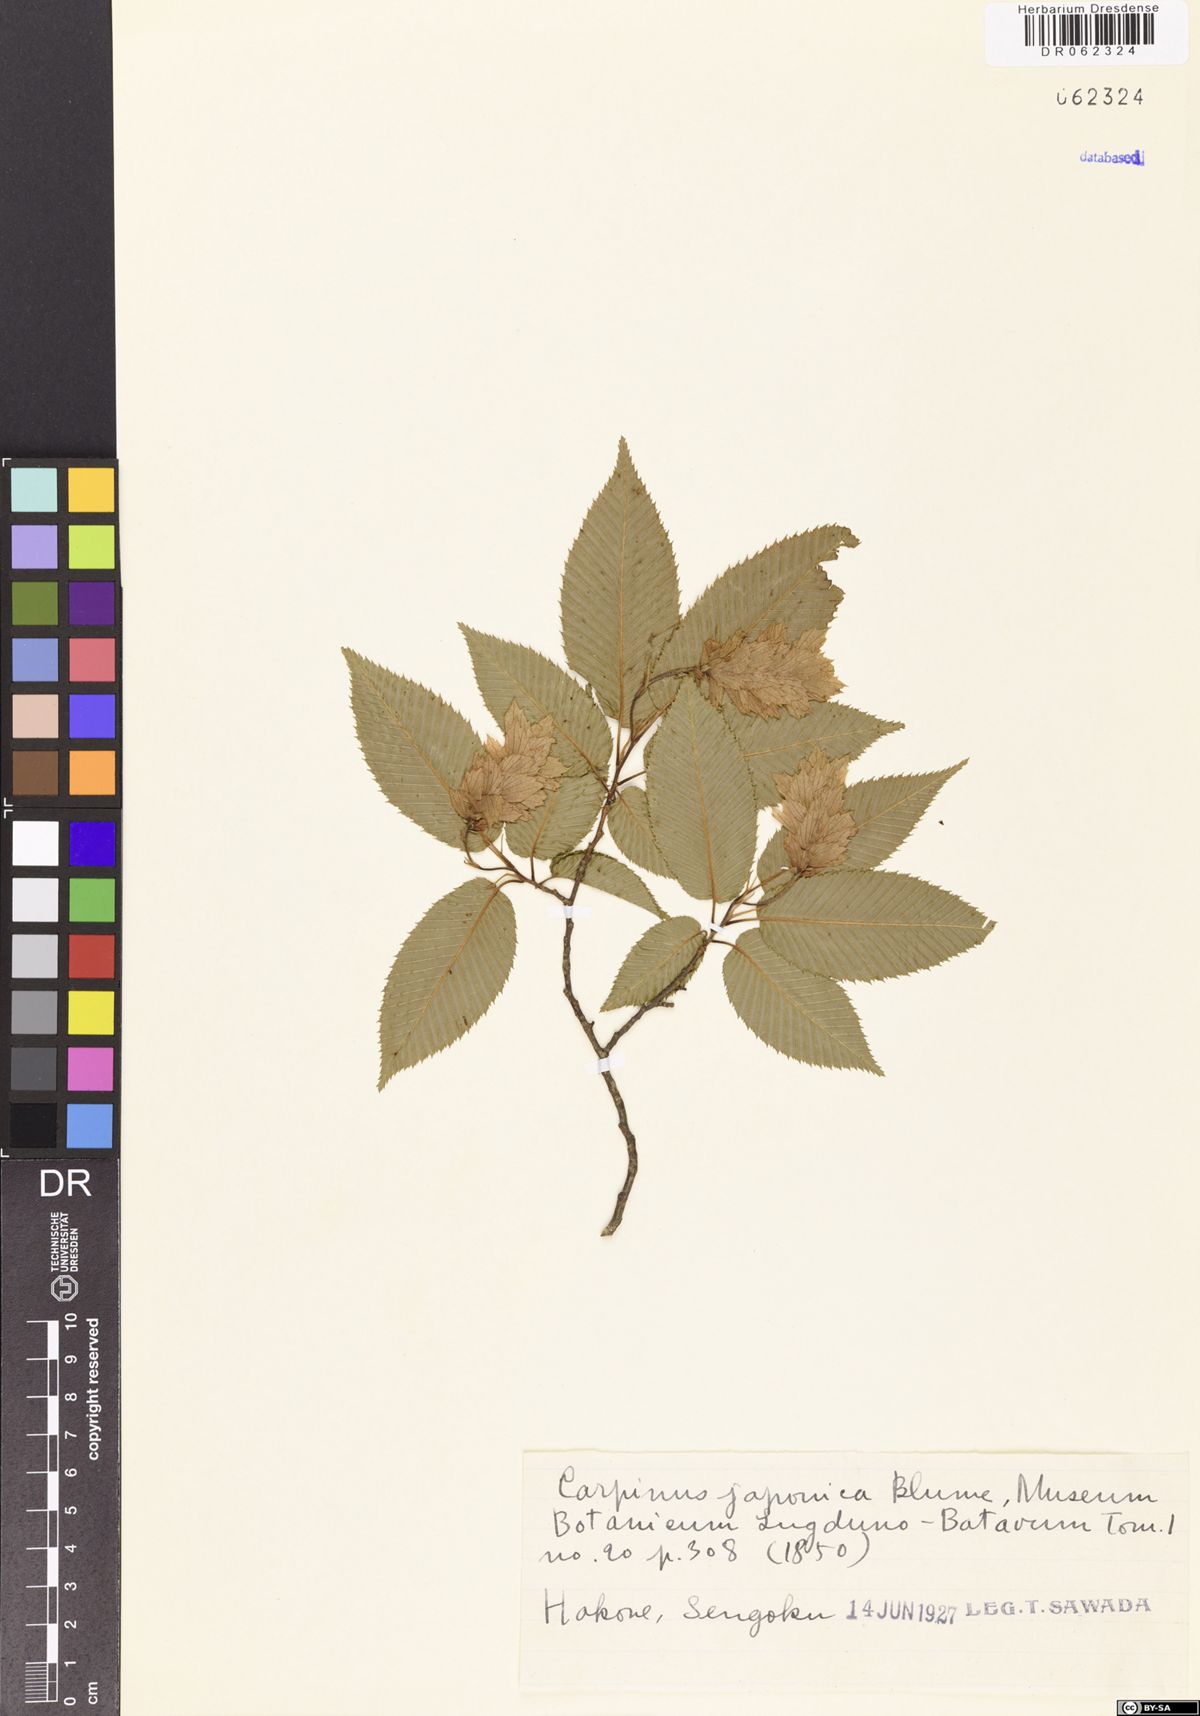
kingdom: Plantae
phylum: Tracheophyta
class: Magnoliopsida
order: Fagales
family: Betulaceae
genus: Carpinus
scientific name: Carpinus japonica
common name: Japanese hornbeam
